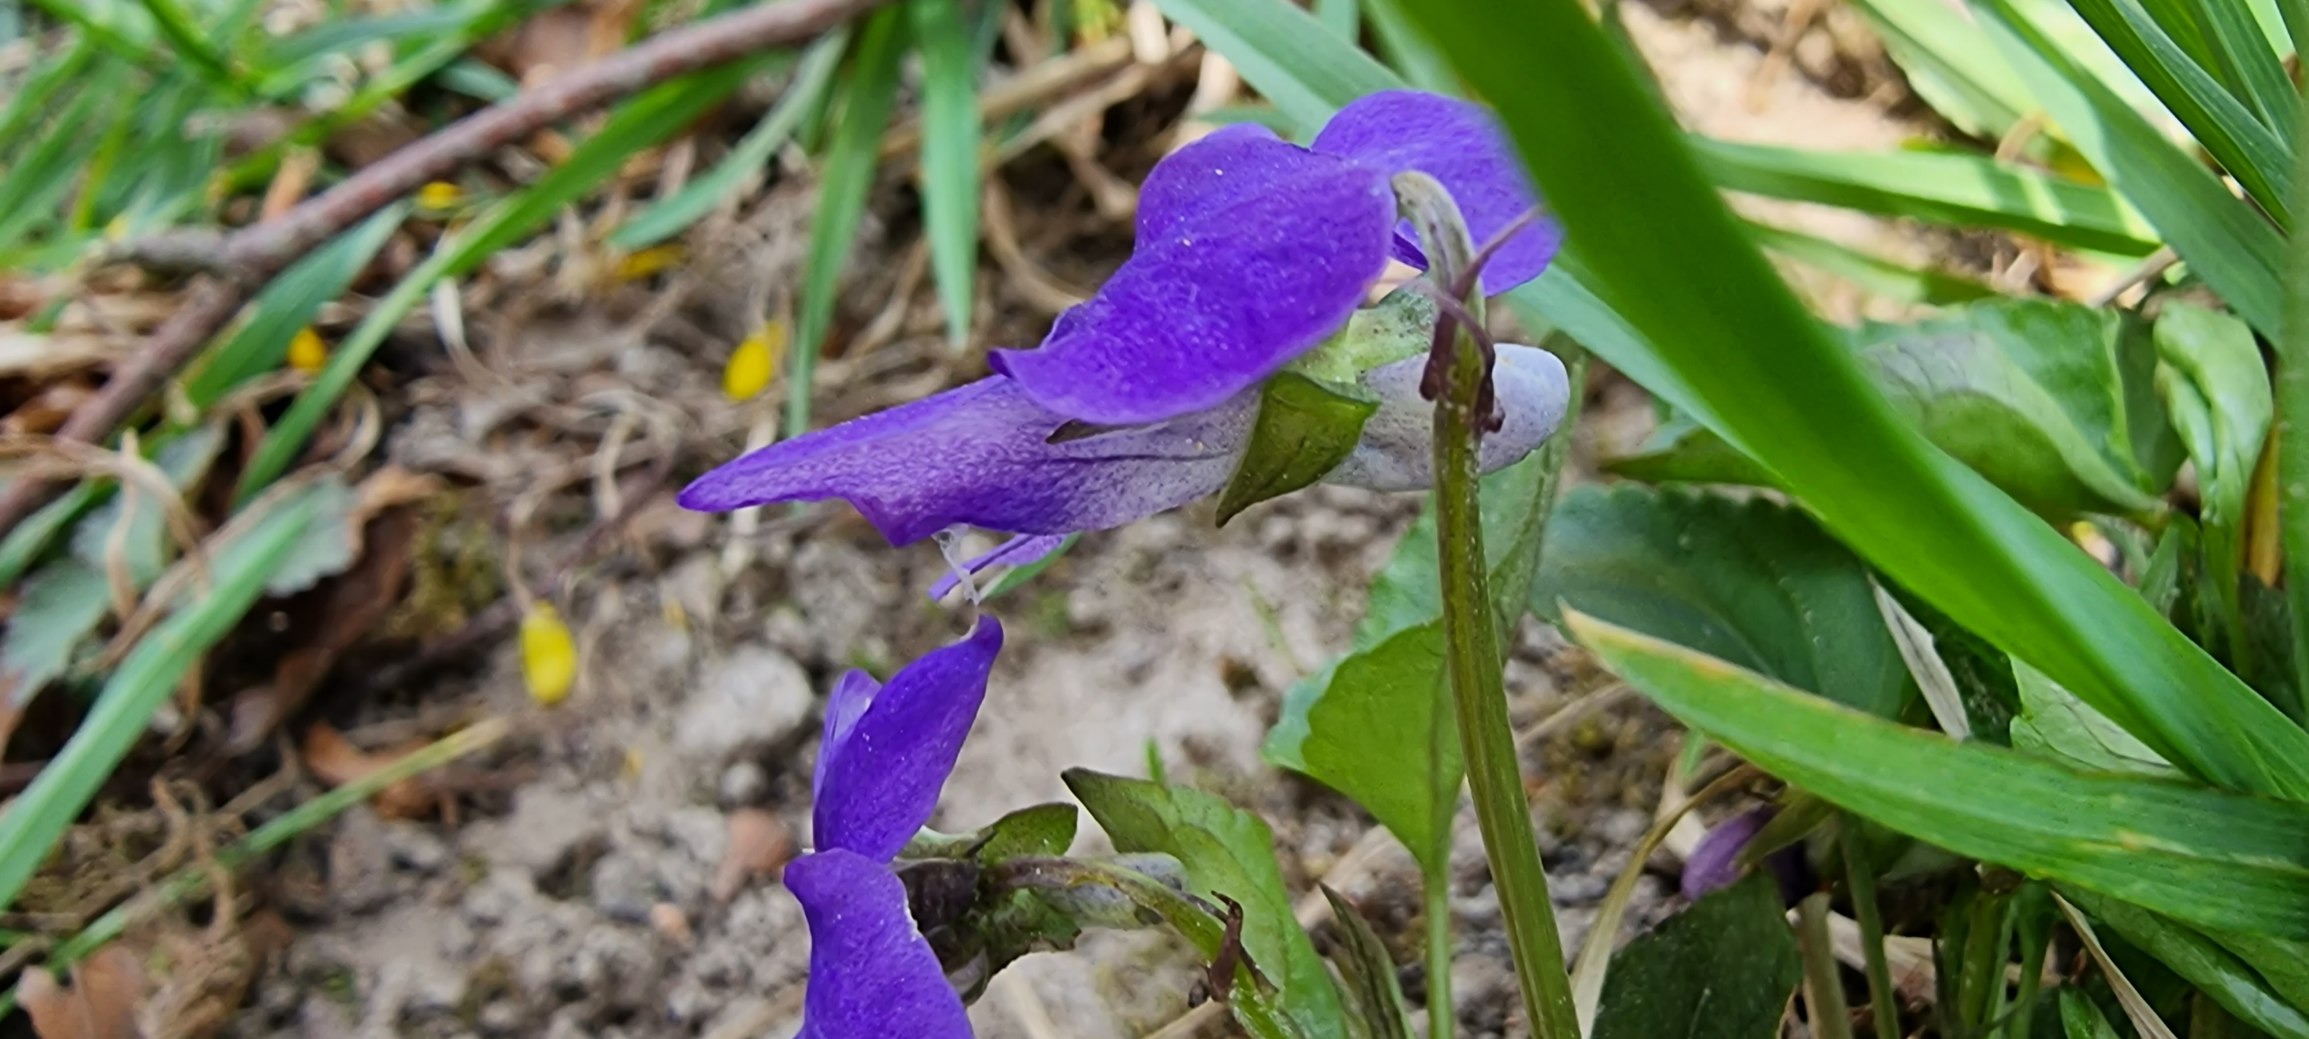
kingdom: Plantae
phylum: Tracheophyta
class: Magnoliopsida
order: Malpighiales
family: Violaceae
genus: Viola
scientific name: Viola riviniana
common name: Krat-viol
